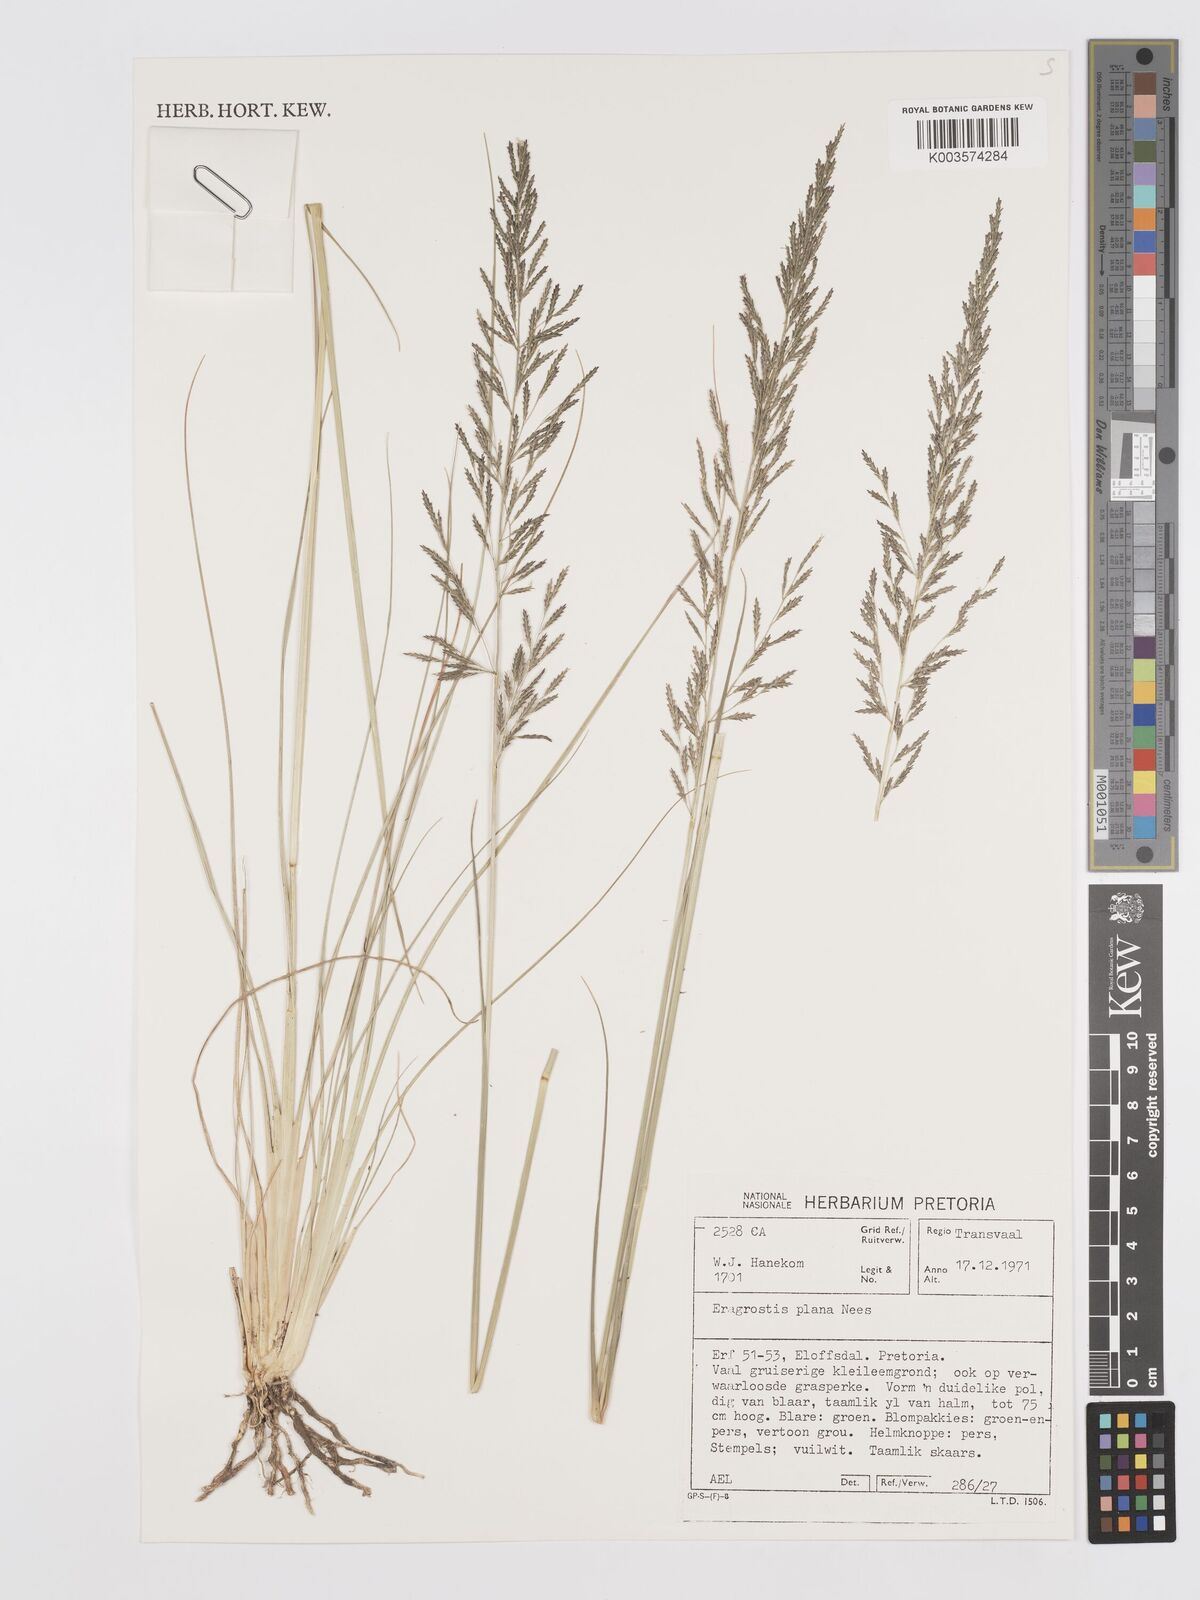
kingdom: Plantae
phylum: Tracheophyta
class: Liliopsida
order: Poales
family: Poaceae
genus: Eragrostis
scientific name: Eragrostis plana
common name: South african lovegrass
